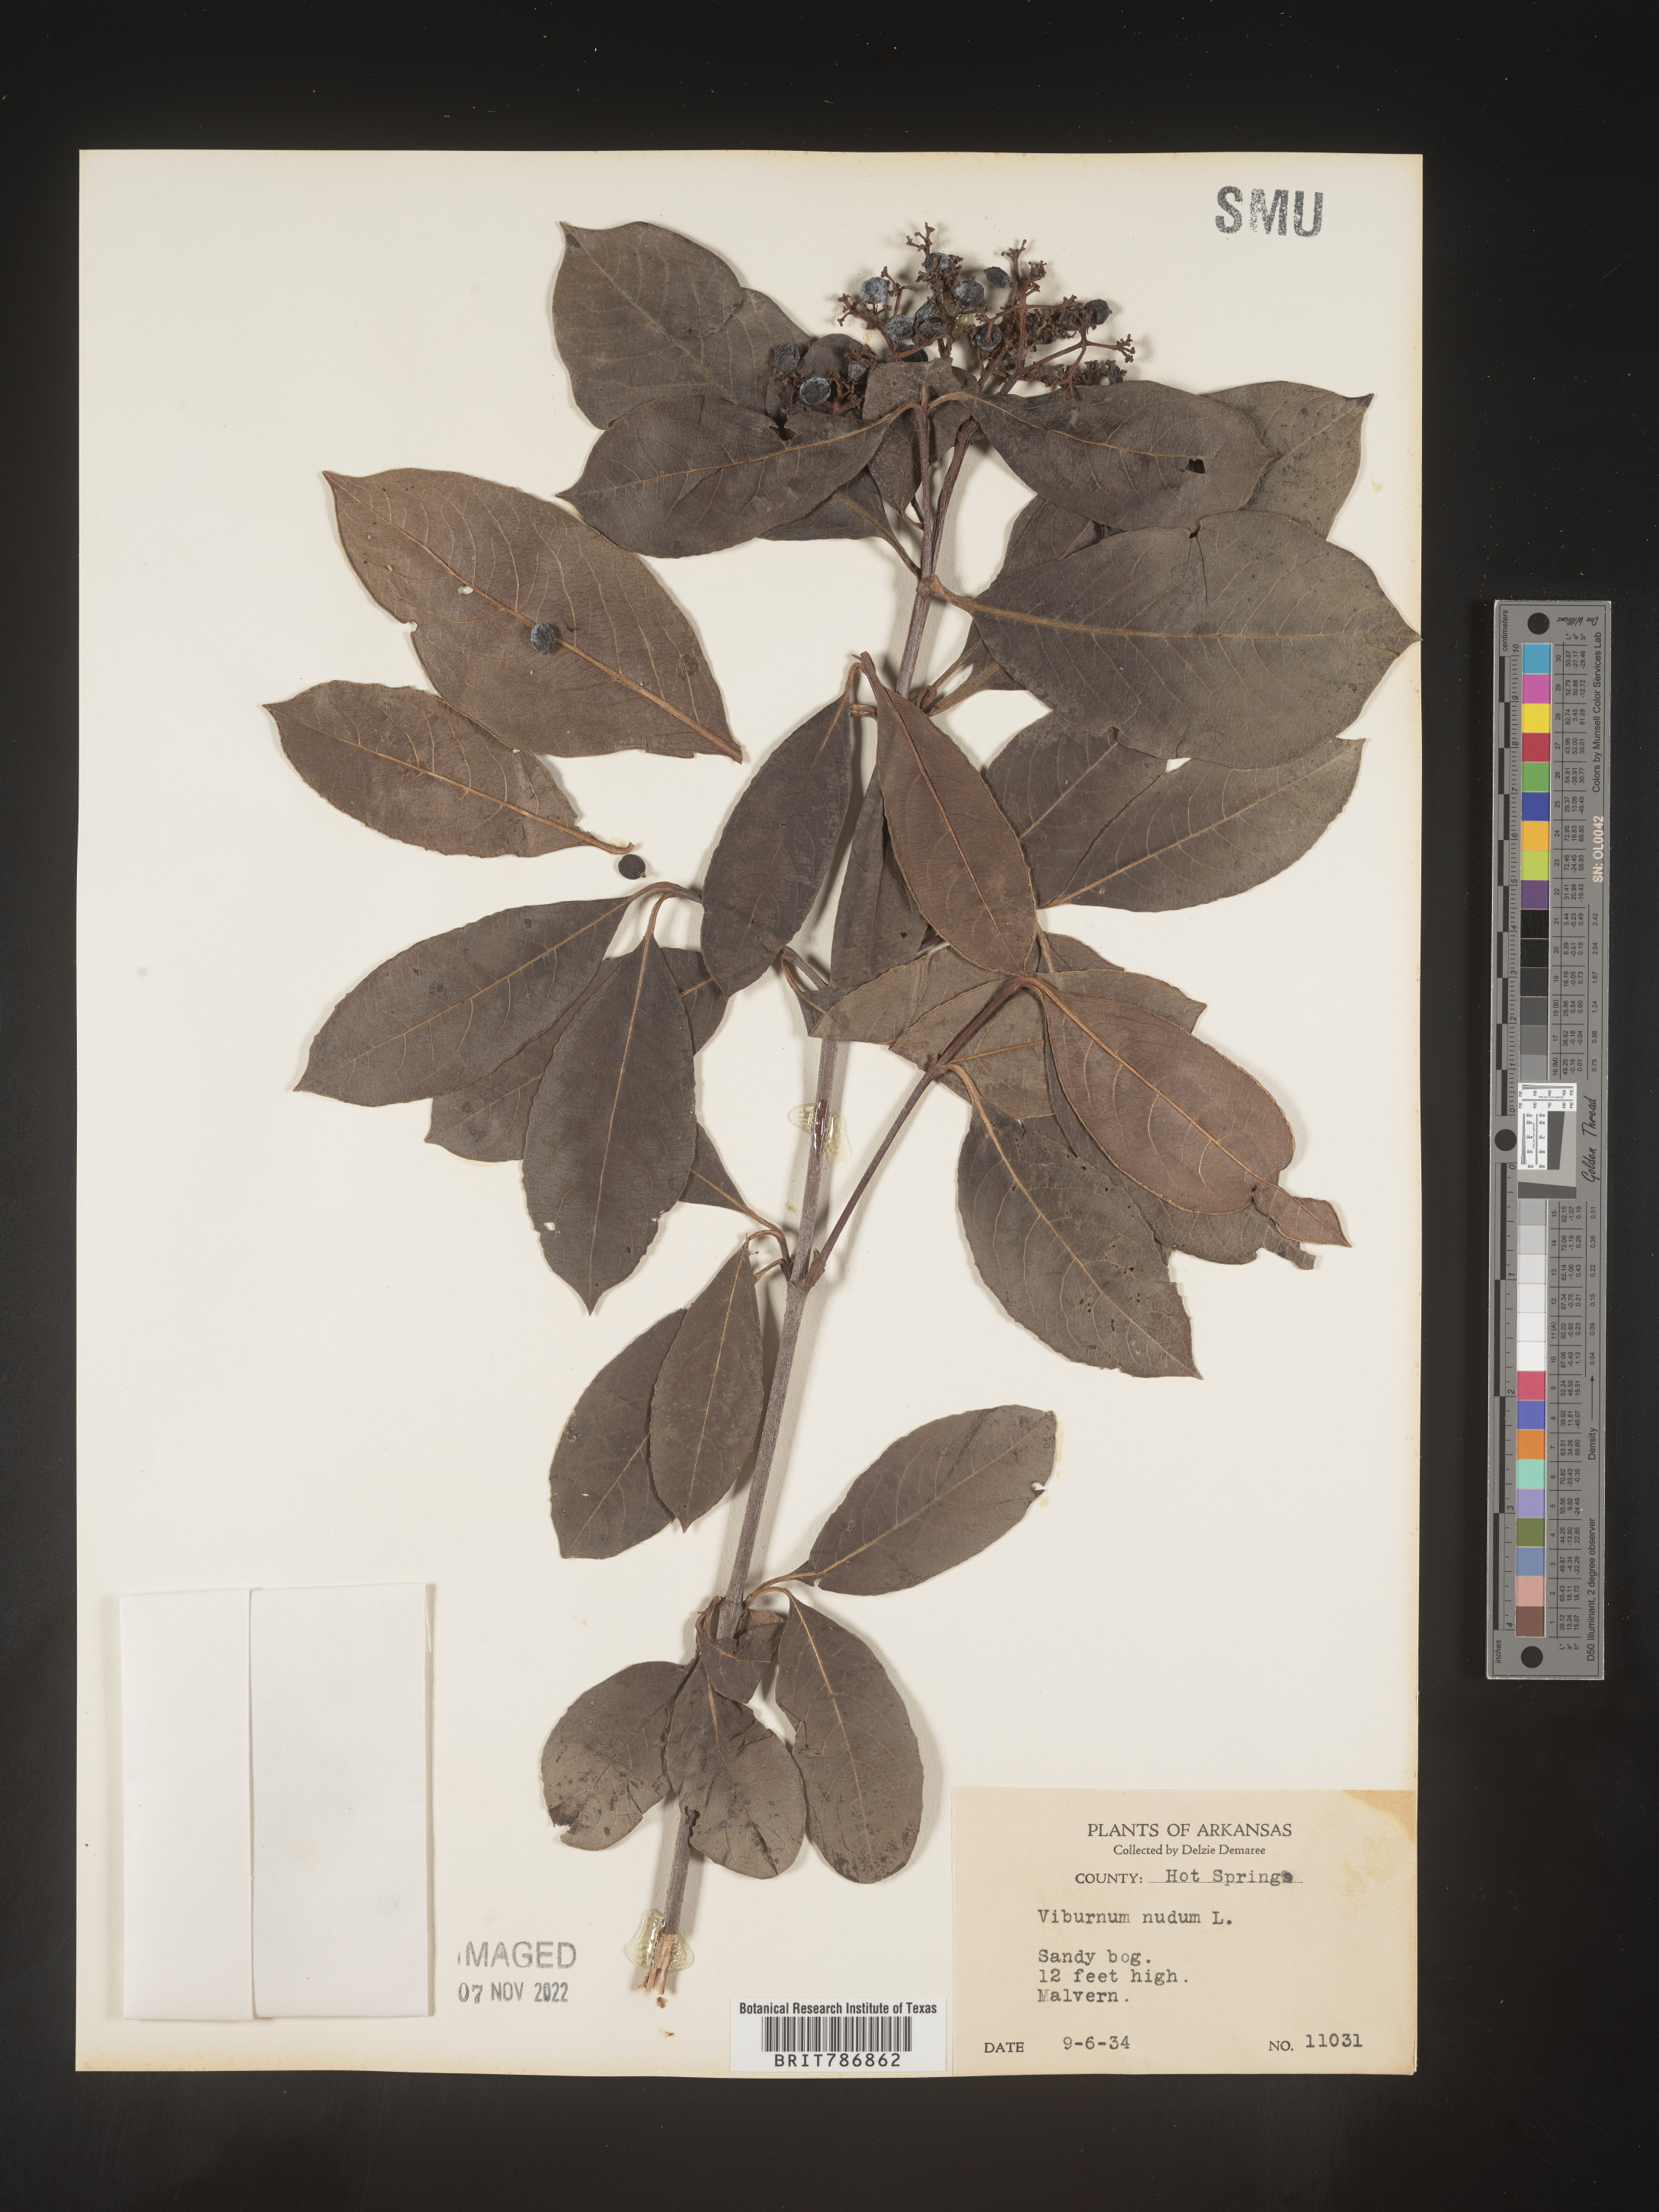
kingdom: Plantae
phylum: Tracheophyta
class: Magnoliopsida
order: Dipsacales
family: Viburnaceae
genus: Viburnum
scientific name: Viburnum nudum
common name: Possum haw
